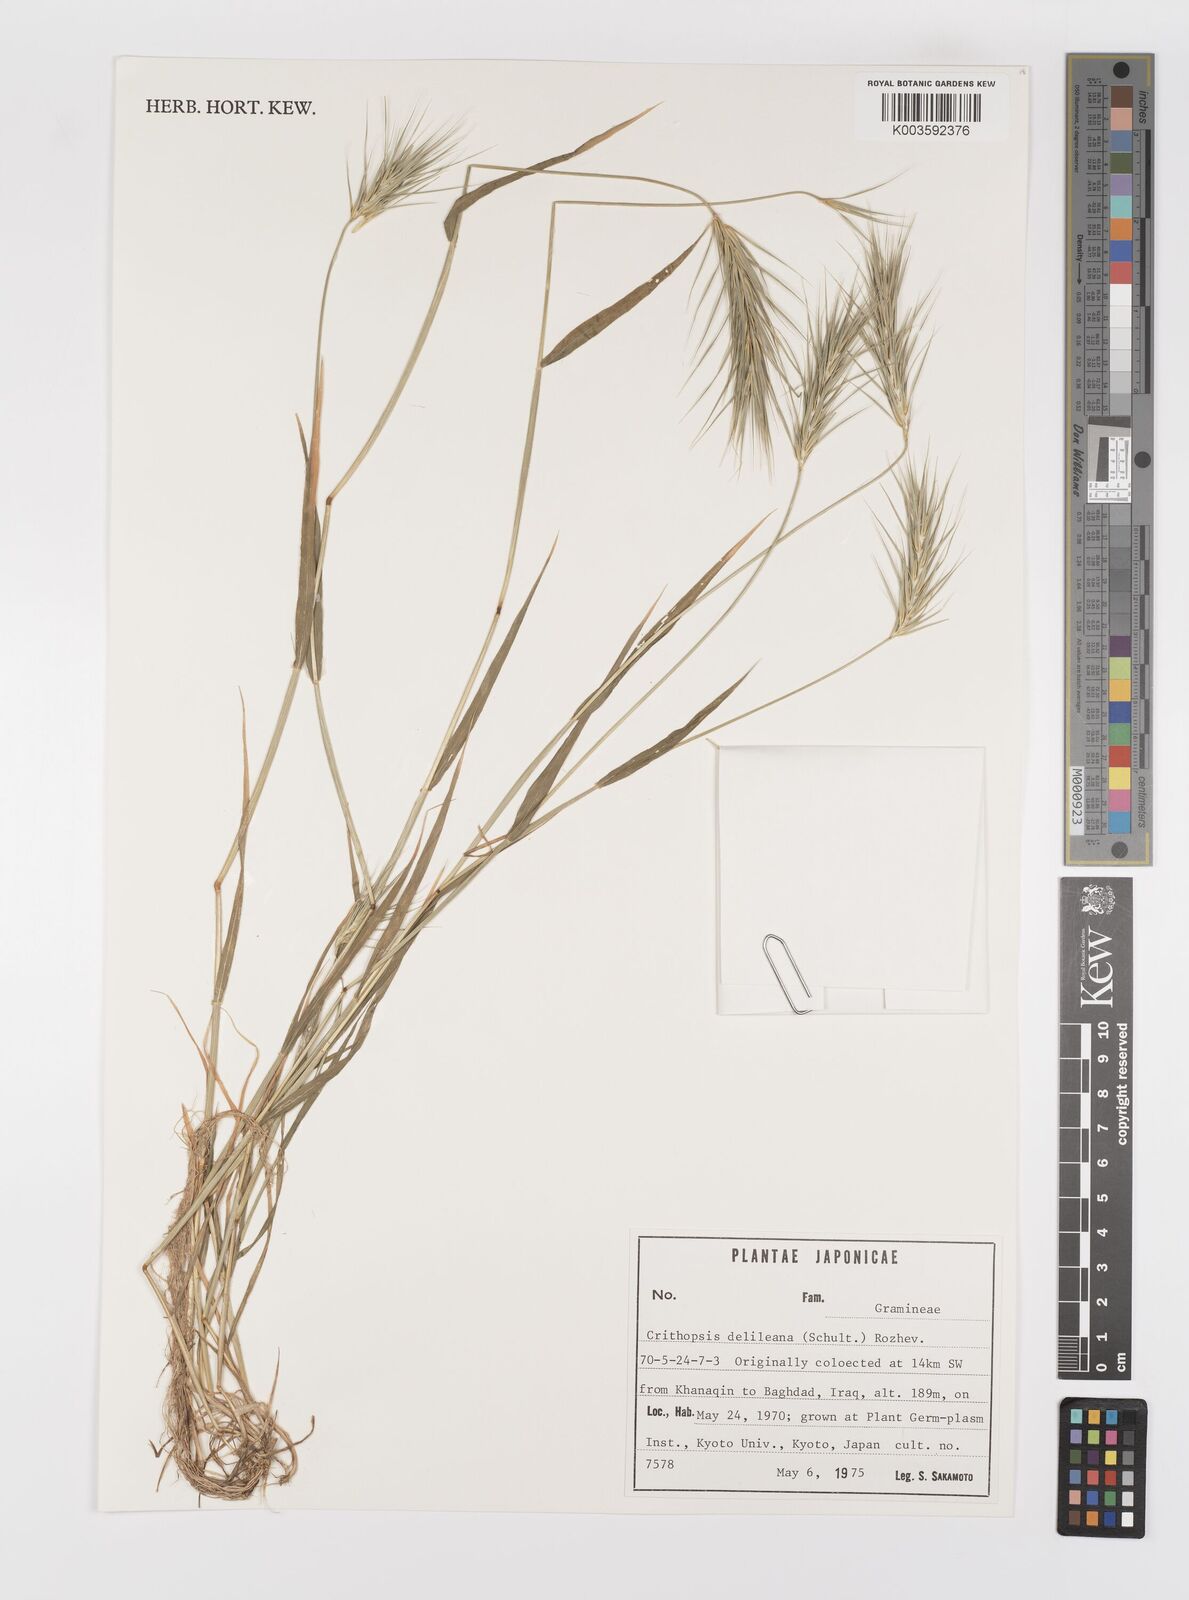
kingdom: Plantae
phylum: Tracheophyta
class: Liliopsida
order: Poales
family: Poaceae
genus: Crithopsis
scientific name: Crithopsis delileana
